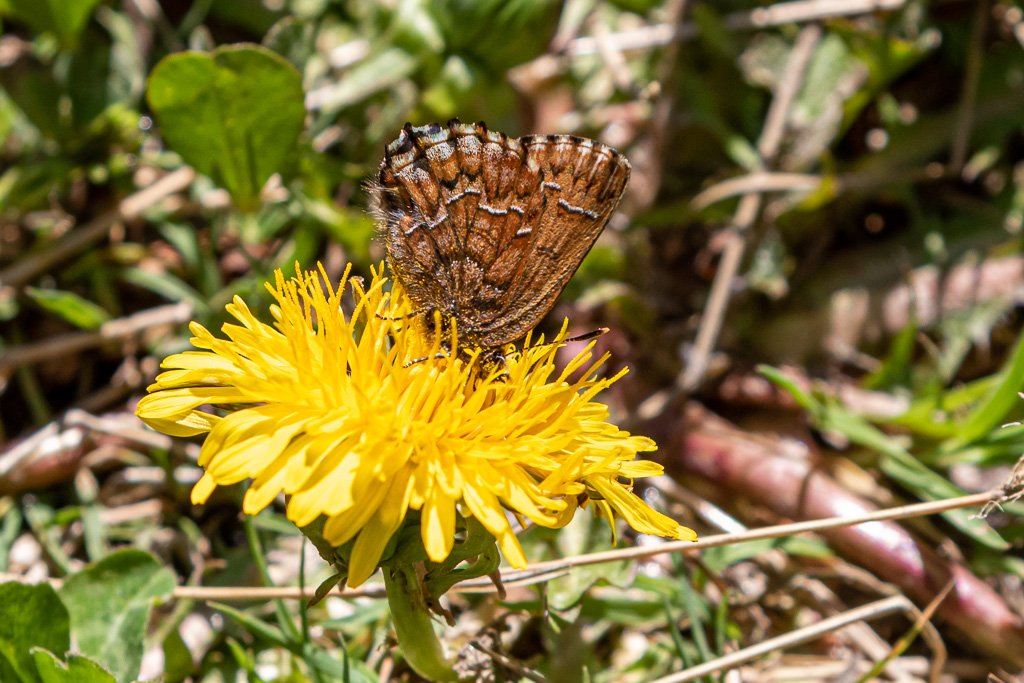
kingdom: Animalia
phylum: Arthropoda
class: Insecta
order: Lepidoptera
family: Lycaenidae
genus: Incisalia
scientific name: Incisalia niphon
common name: Eastern Pine Elfin
